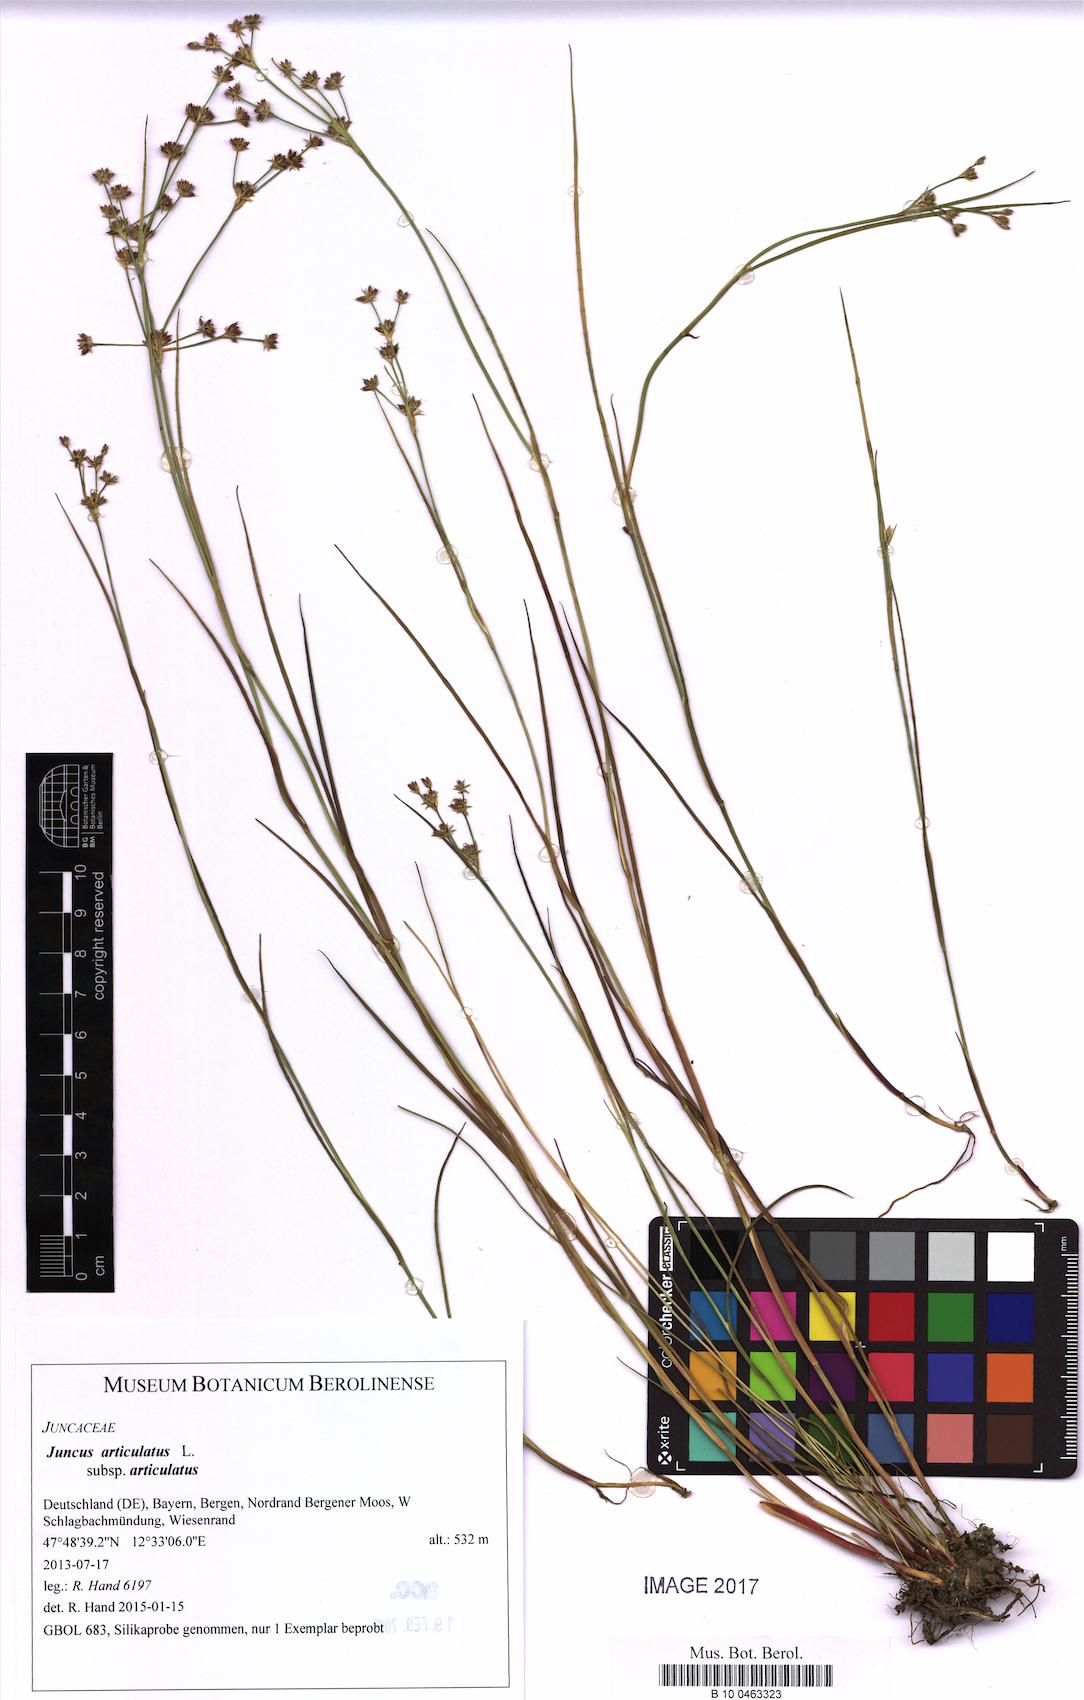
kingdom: Plantae
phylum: Tracheophyta
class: Liliopsida
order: Poales
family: Juncaceae
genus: Juncus
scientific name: Juncus articulatus
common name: Jointed rush
